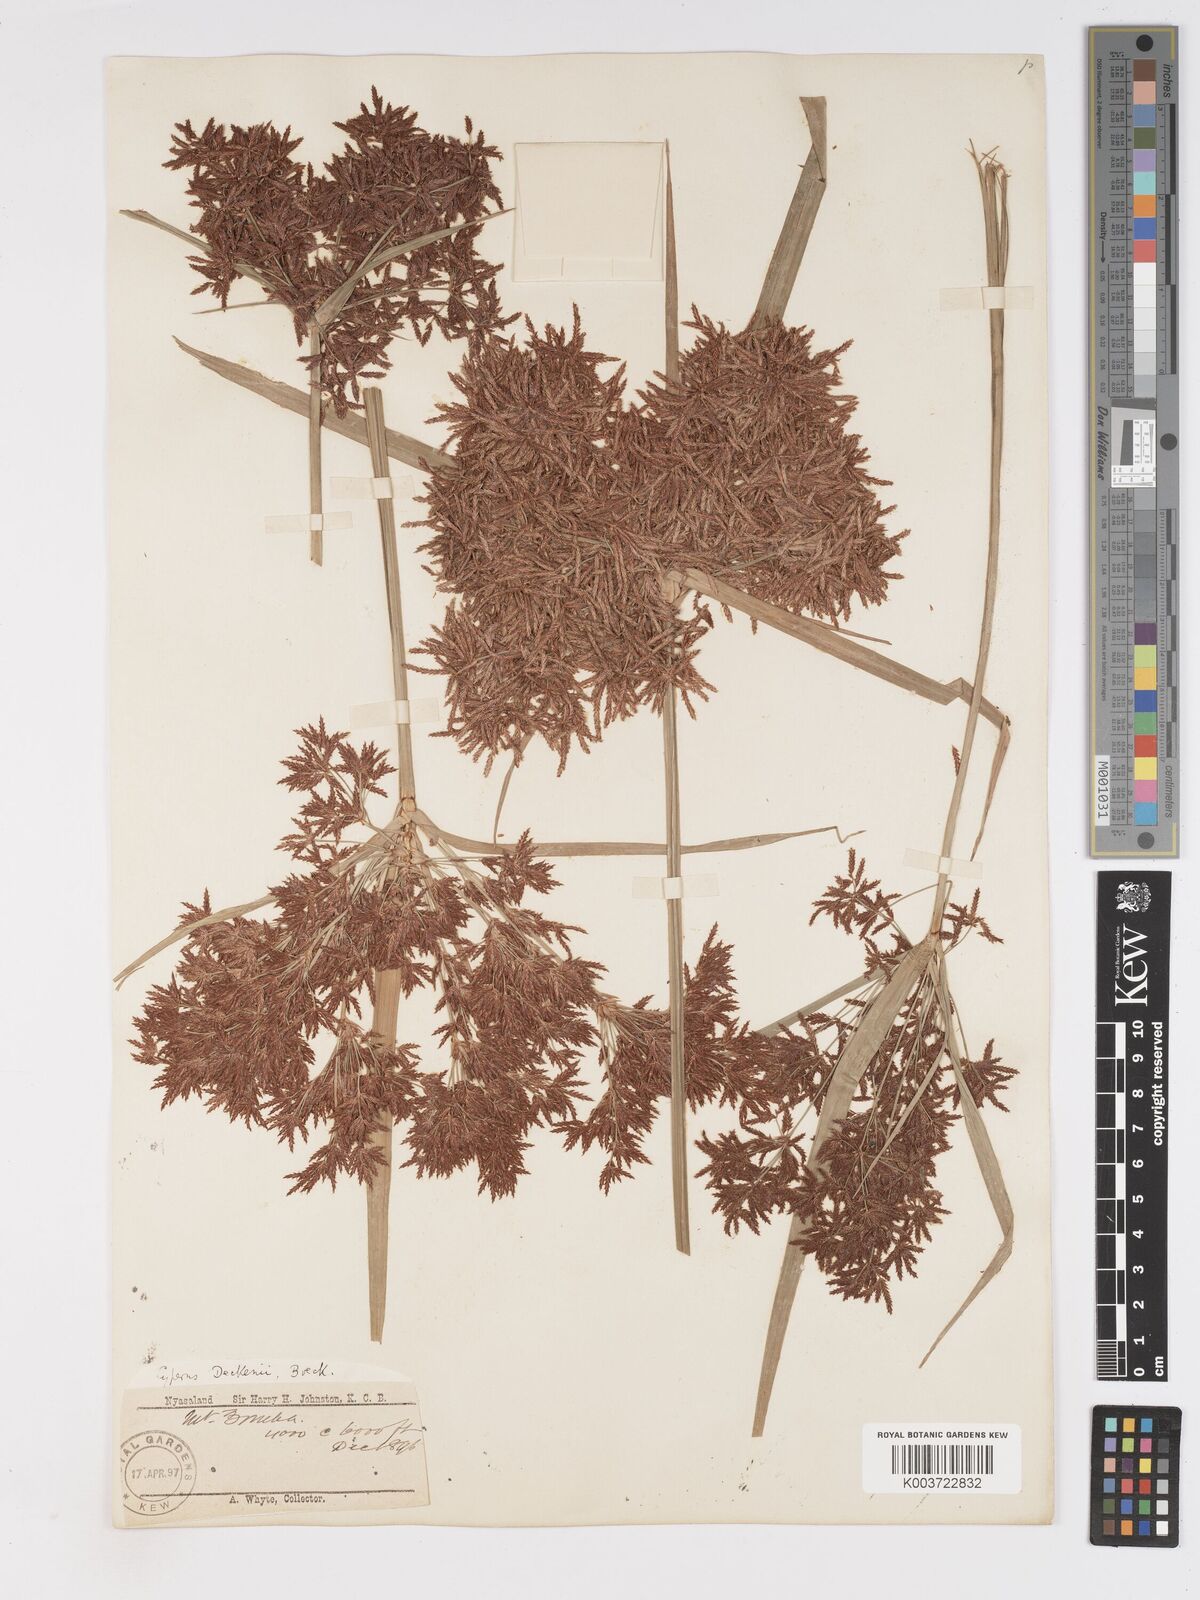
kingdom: Plantae
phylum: Tracheophyta
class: Liliopsida
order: Poales
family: Cyperaceae
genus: Cyperus
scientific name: Cyperus baronii
